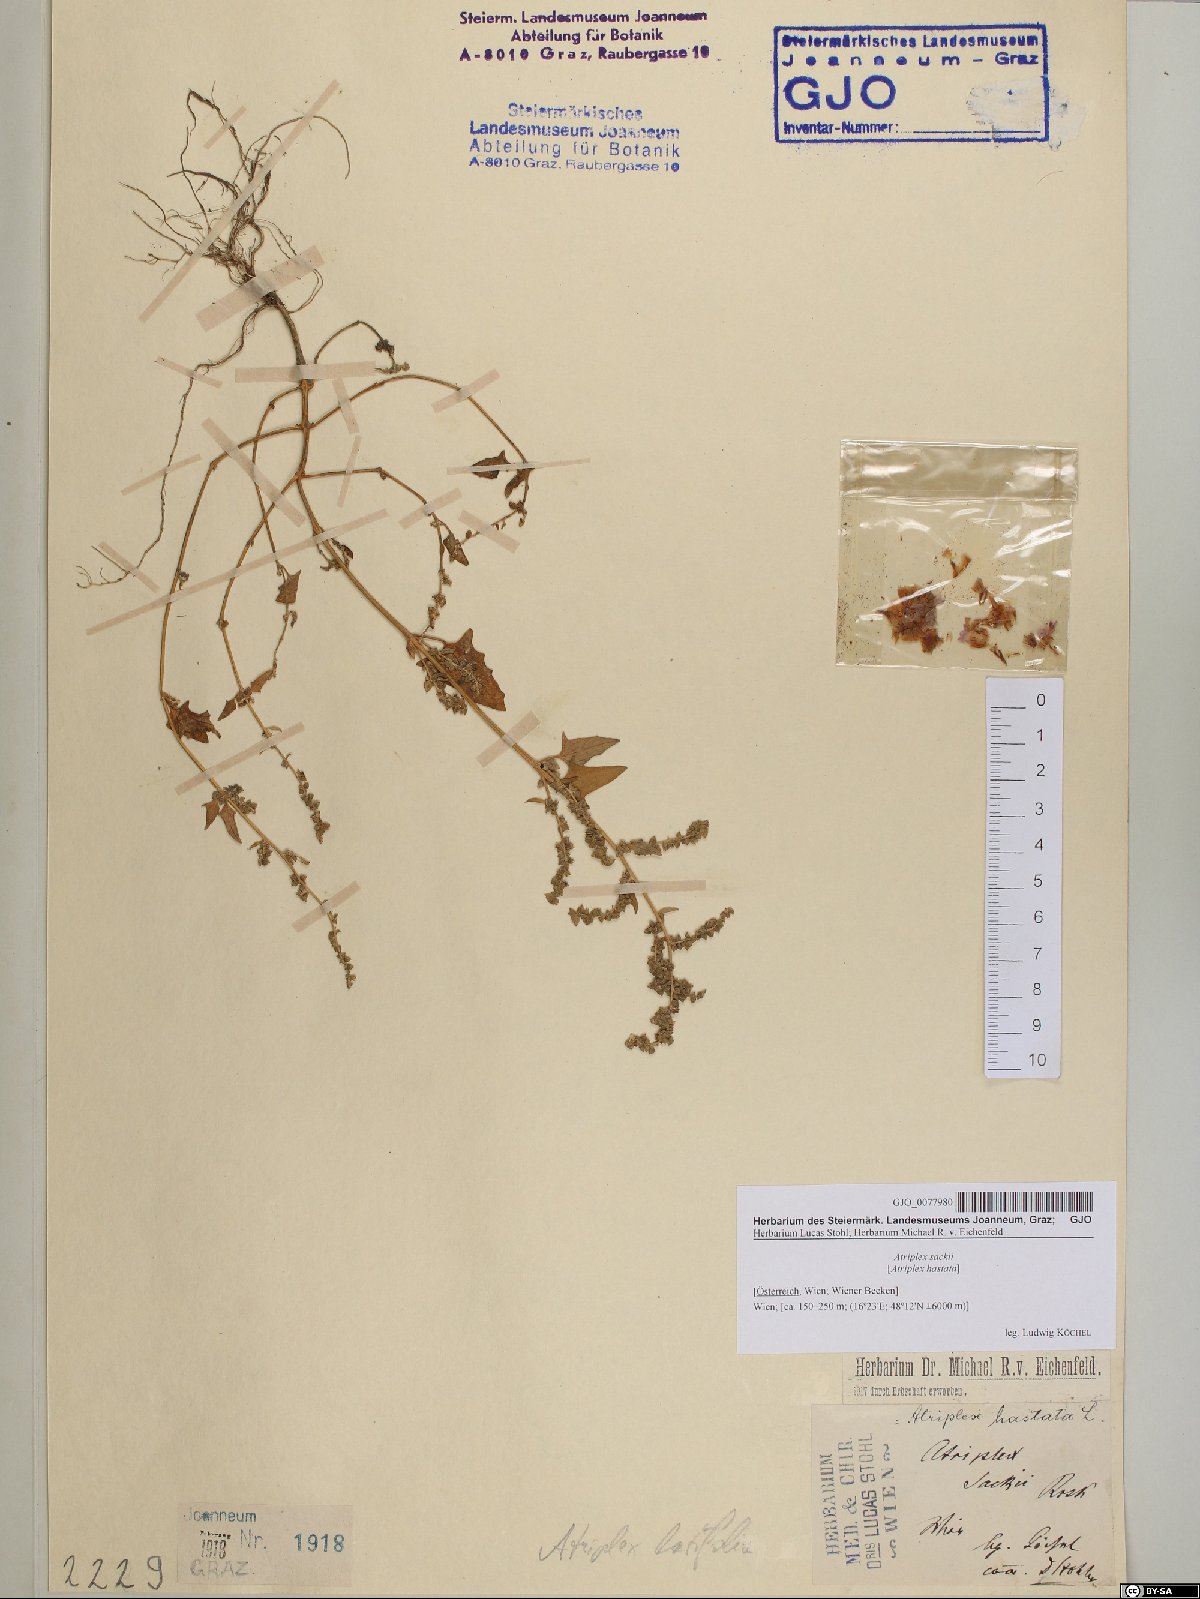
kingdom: Plantae
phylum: Tracheophyta
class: Magnoliopsida
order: Caryophyllales
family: Amaranthaceae
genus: Atriplex
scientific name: Atriplex prostrata
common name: Spear-leaved orache
